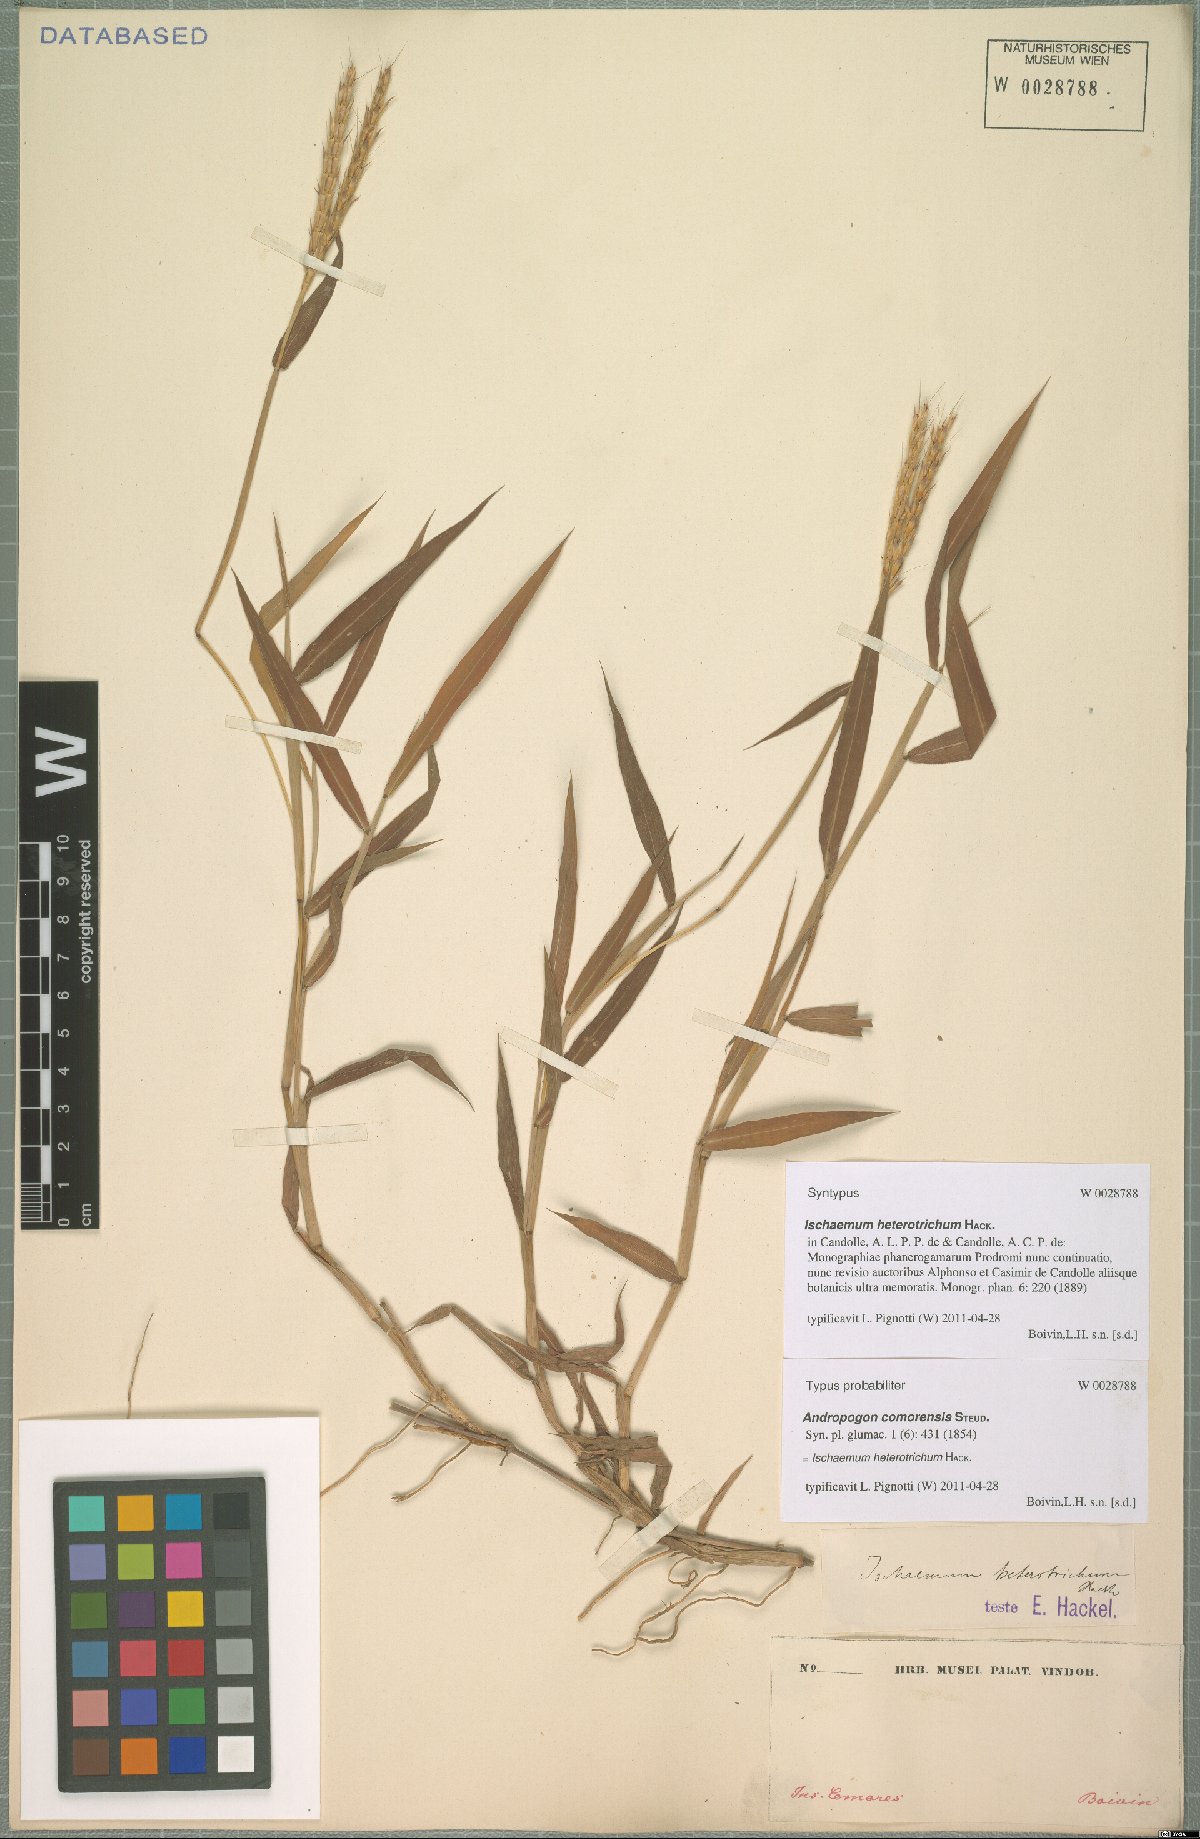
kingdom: Plantae
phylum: Tracheophyta
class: Liliopsida
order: Poales
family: Poaceae
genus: Ischaemum
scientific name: Ischaemum heterotrichum
